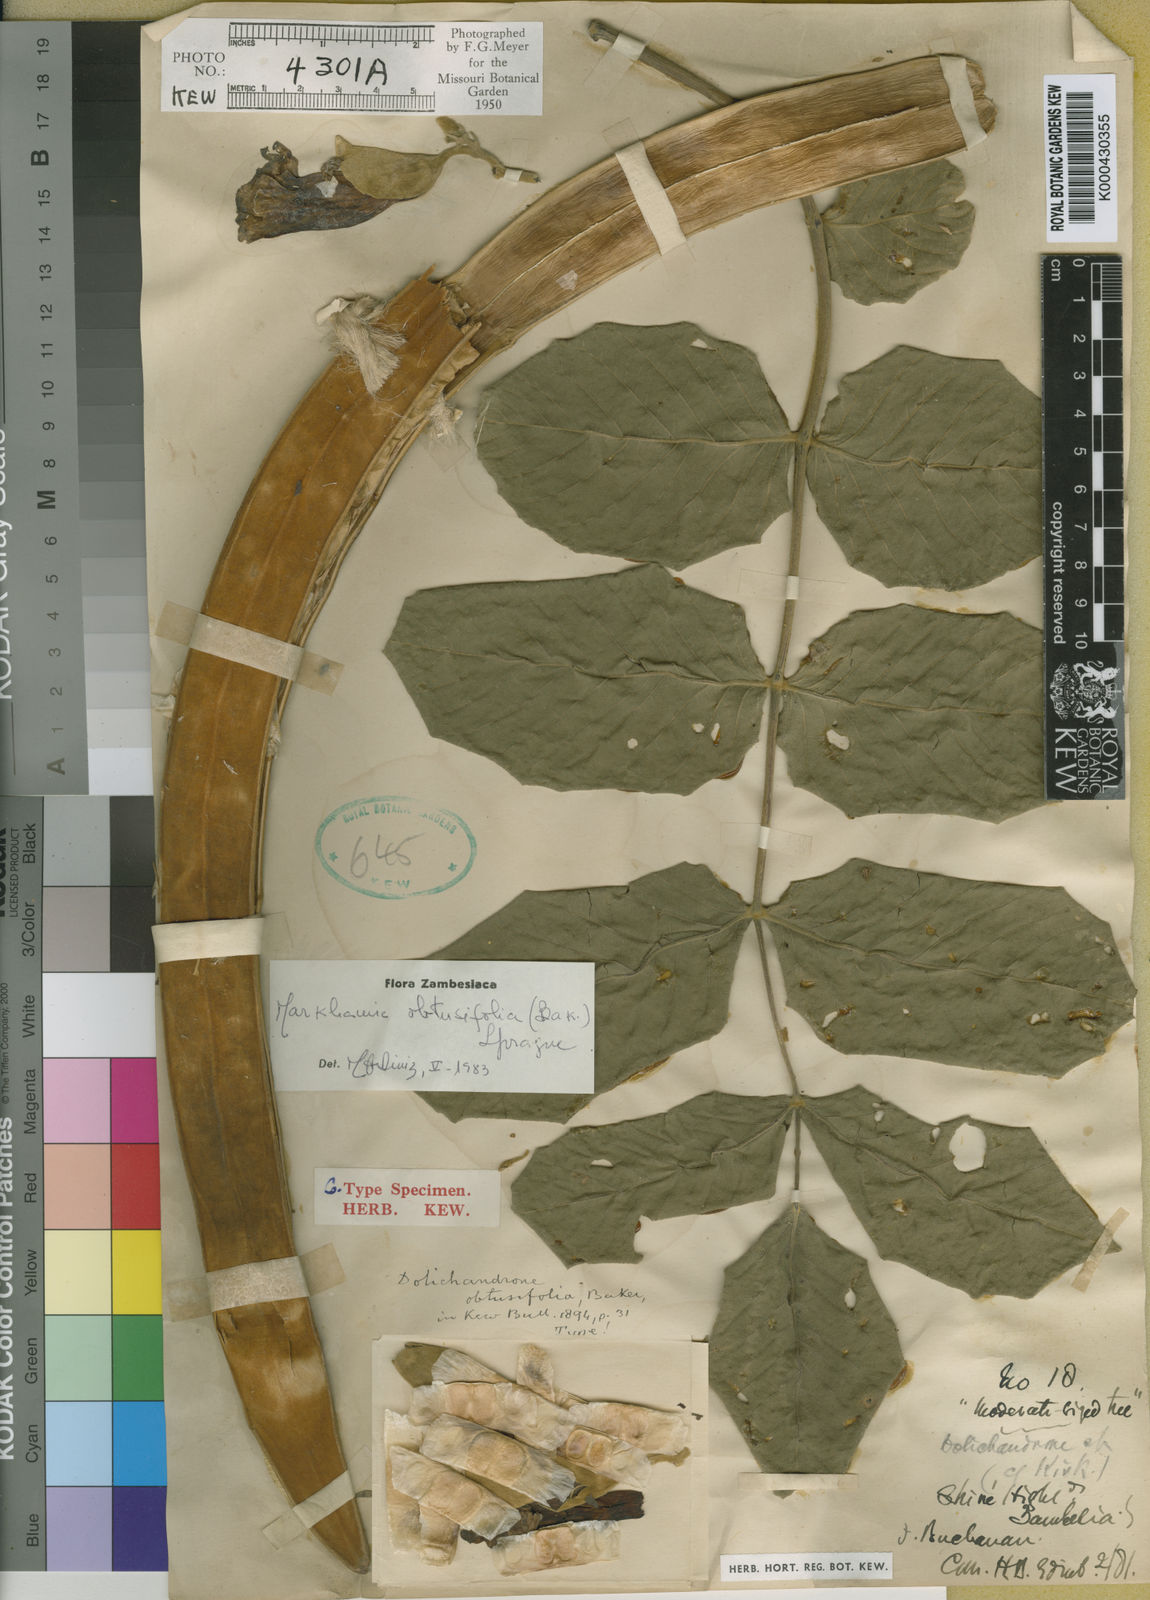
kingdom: Plantae
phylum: Tracheophyta
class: Magnoliopsida
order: Lamiales
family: Bignoniaceae
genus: Markhamia
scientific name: Markhamia obtusifolia
